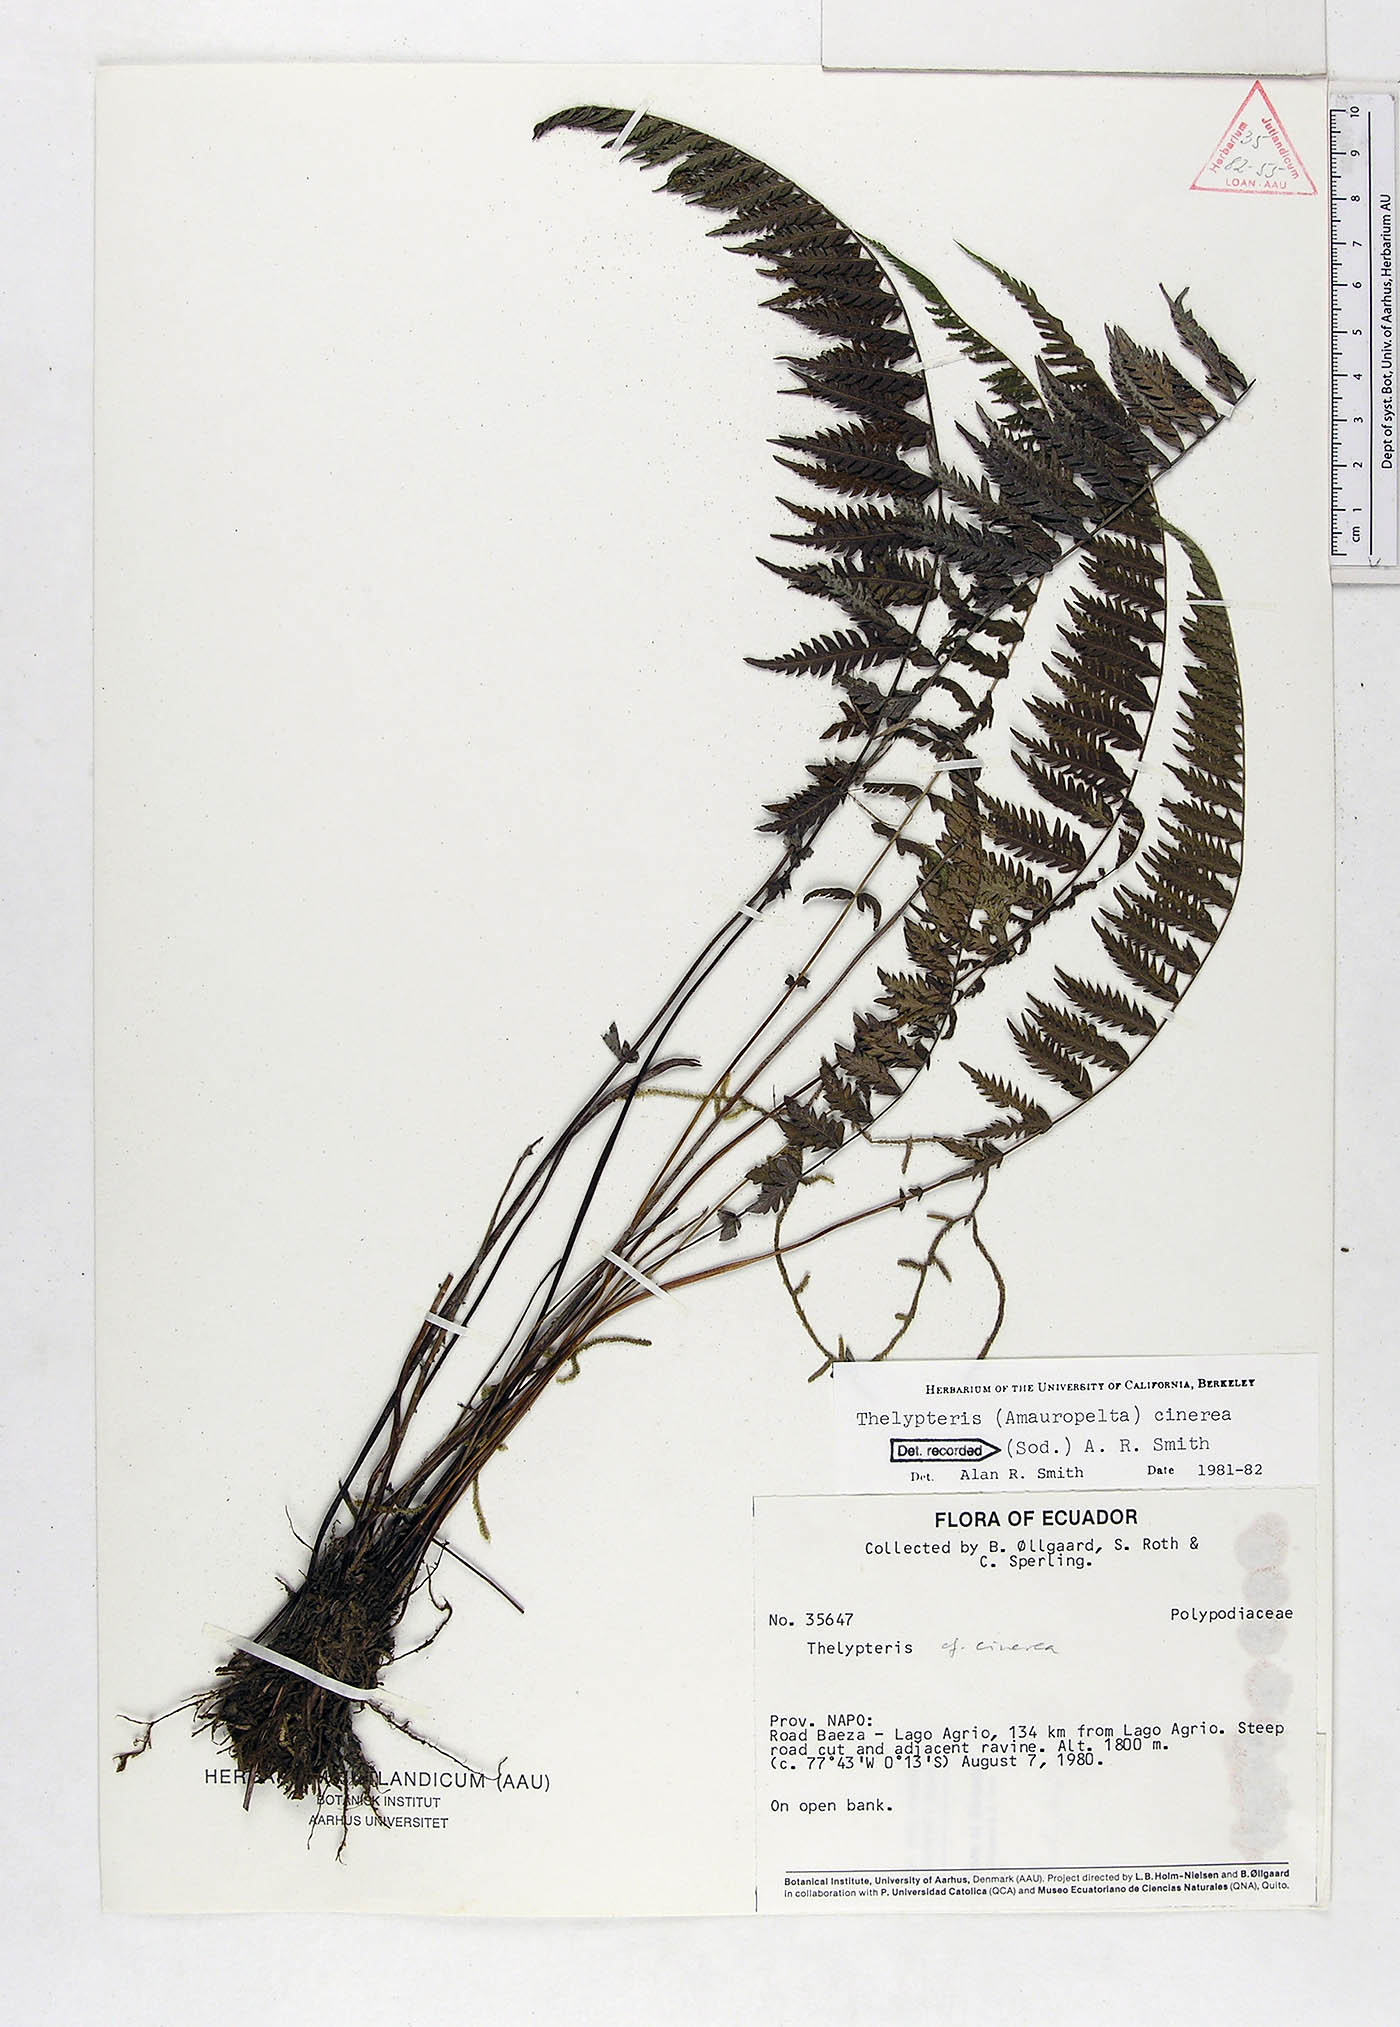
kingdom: Plantae
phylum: Tracheophyta
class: Polypodiopsida
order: Polypodiales
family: Thelypteridaceae
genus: Amauropelta
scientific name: Amauropelta cinerea
